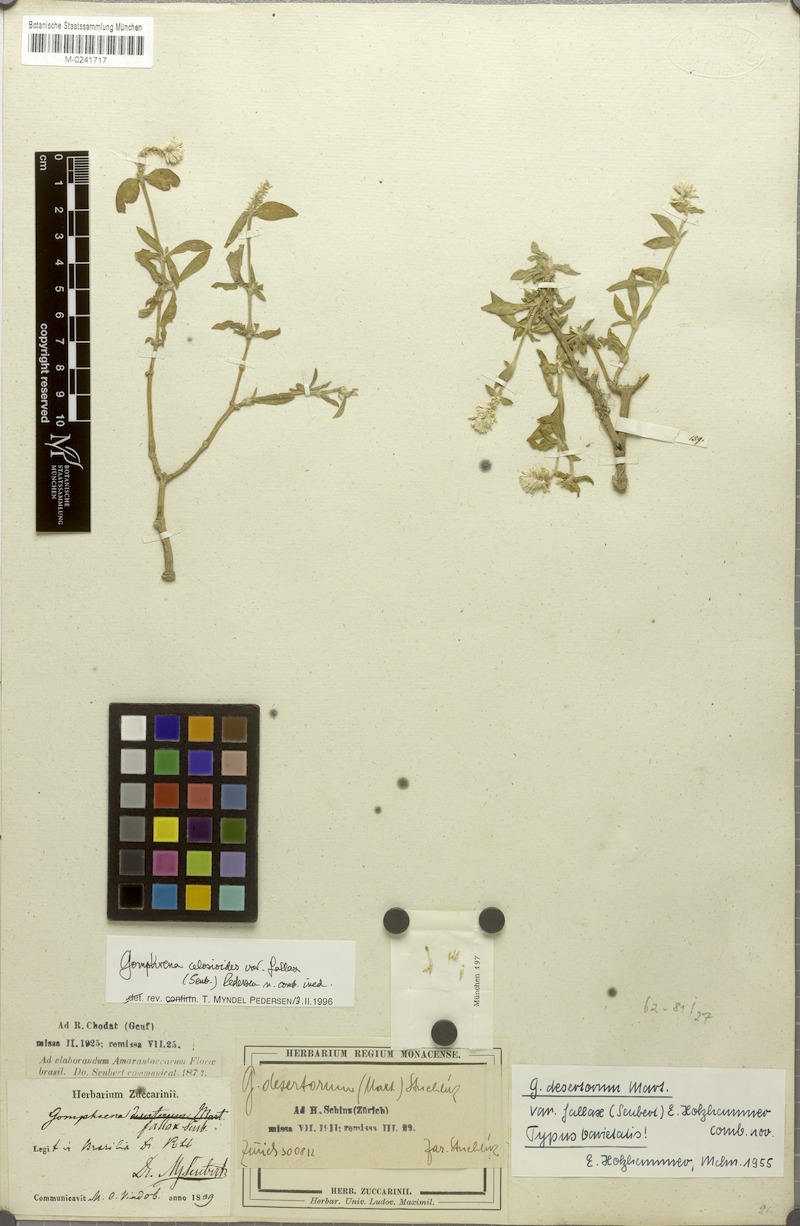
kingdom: Plantae
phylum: Tracheophyta
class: Magnoliopsida
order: Caryophyllales
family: Amaranthaceae
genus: Gomphrena
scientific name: Gomphrena celosioides
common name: Gomphrena-weed
